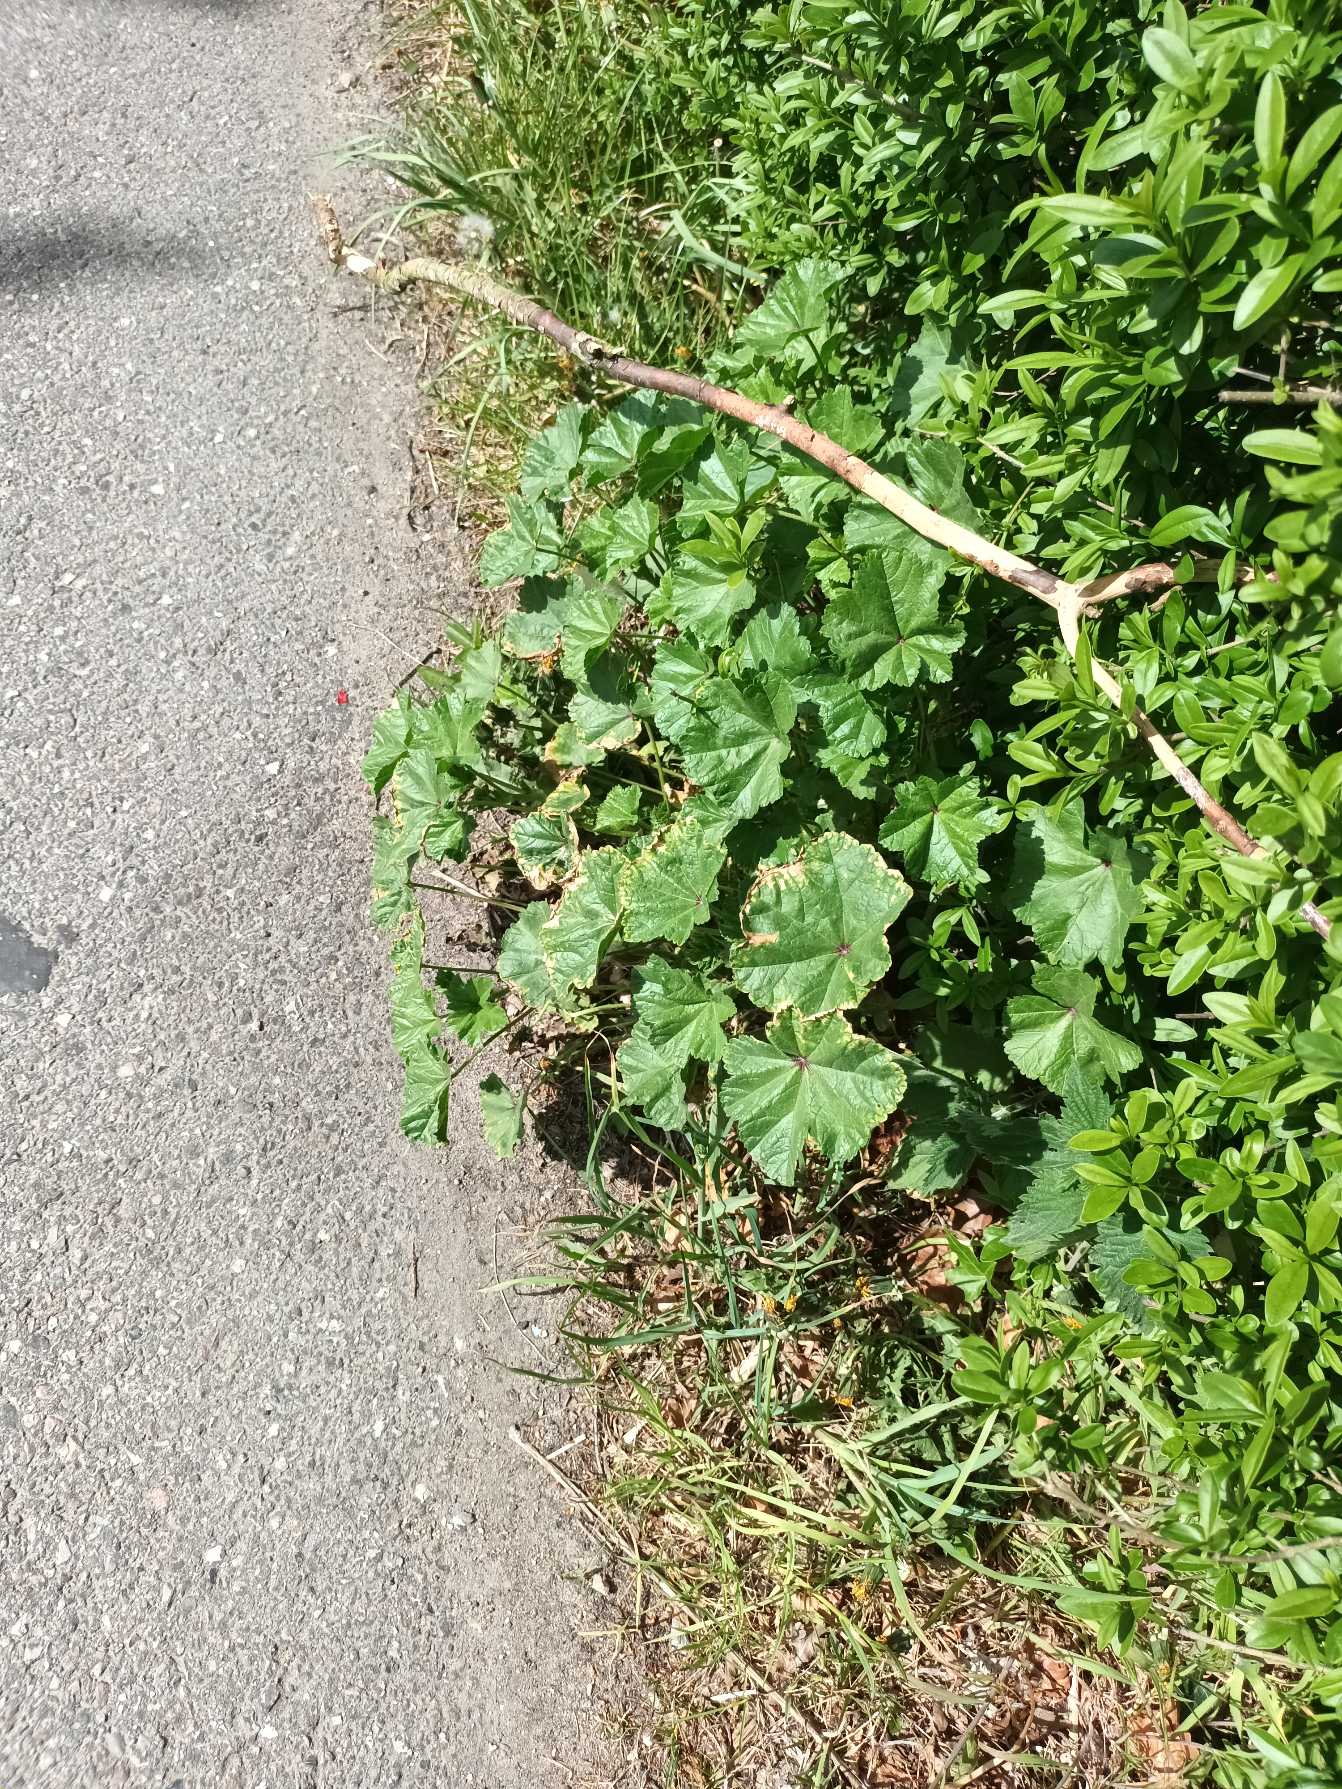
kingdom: Plantae
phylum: Tracheophyta
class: Magnoliopsida
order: Malvales
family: Malvaceae
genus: Malva
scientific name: Malva sylvestris
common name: Almindelig katost
